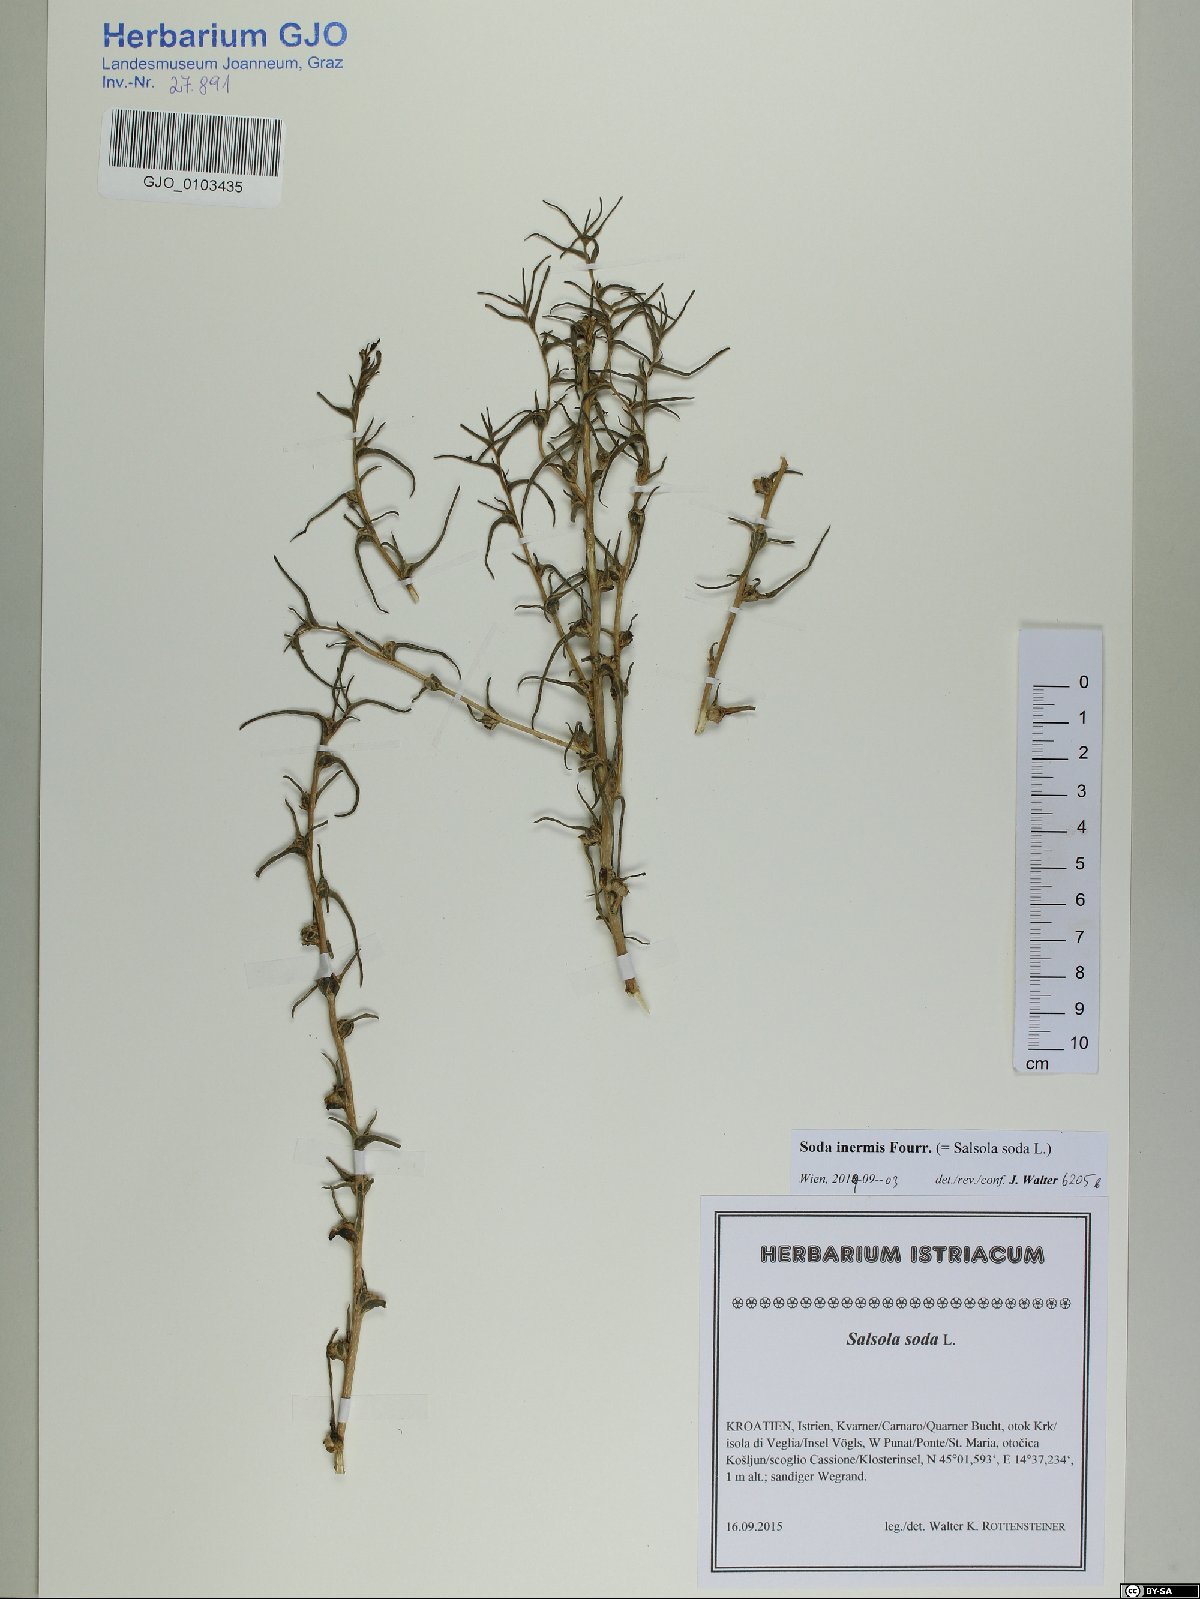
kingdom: Plantae
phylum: Tracheophyta
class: Magnoliopsida
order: Caryophyllales
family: Amaranthaceae
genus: Soda
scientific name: Soda inermis
